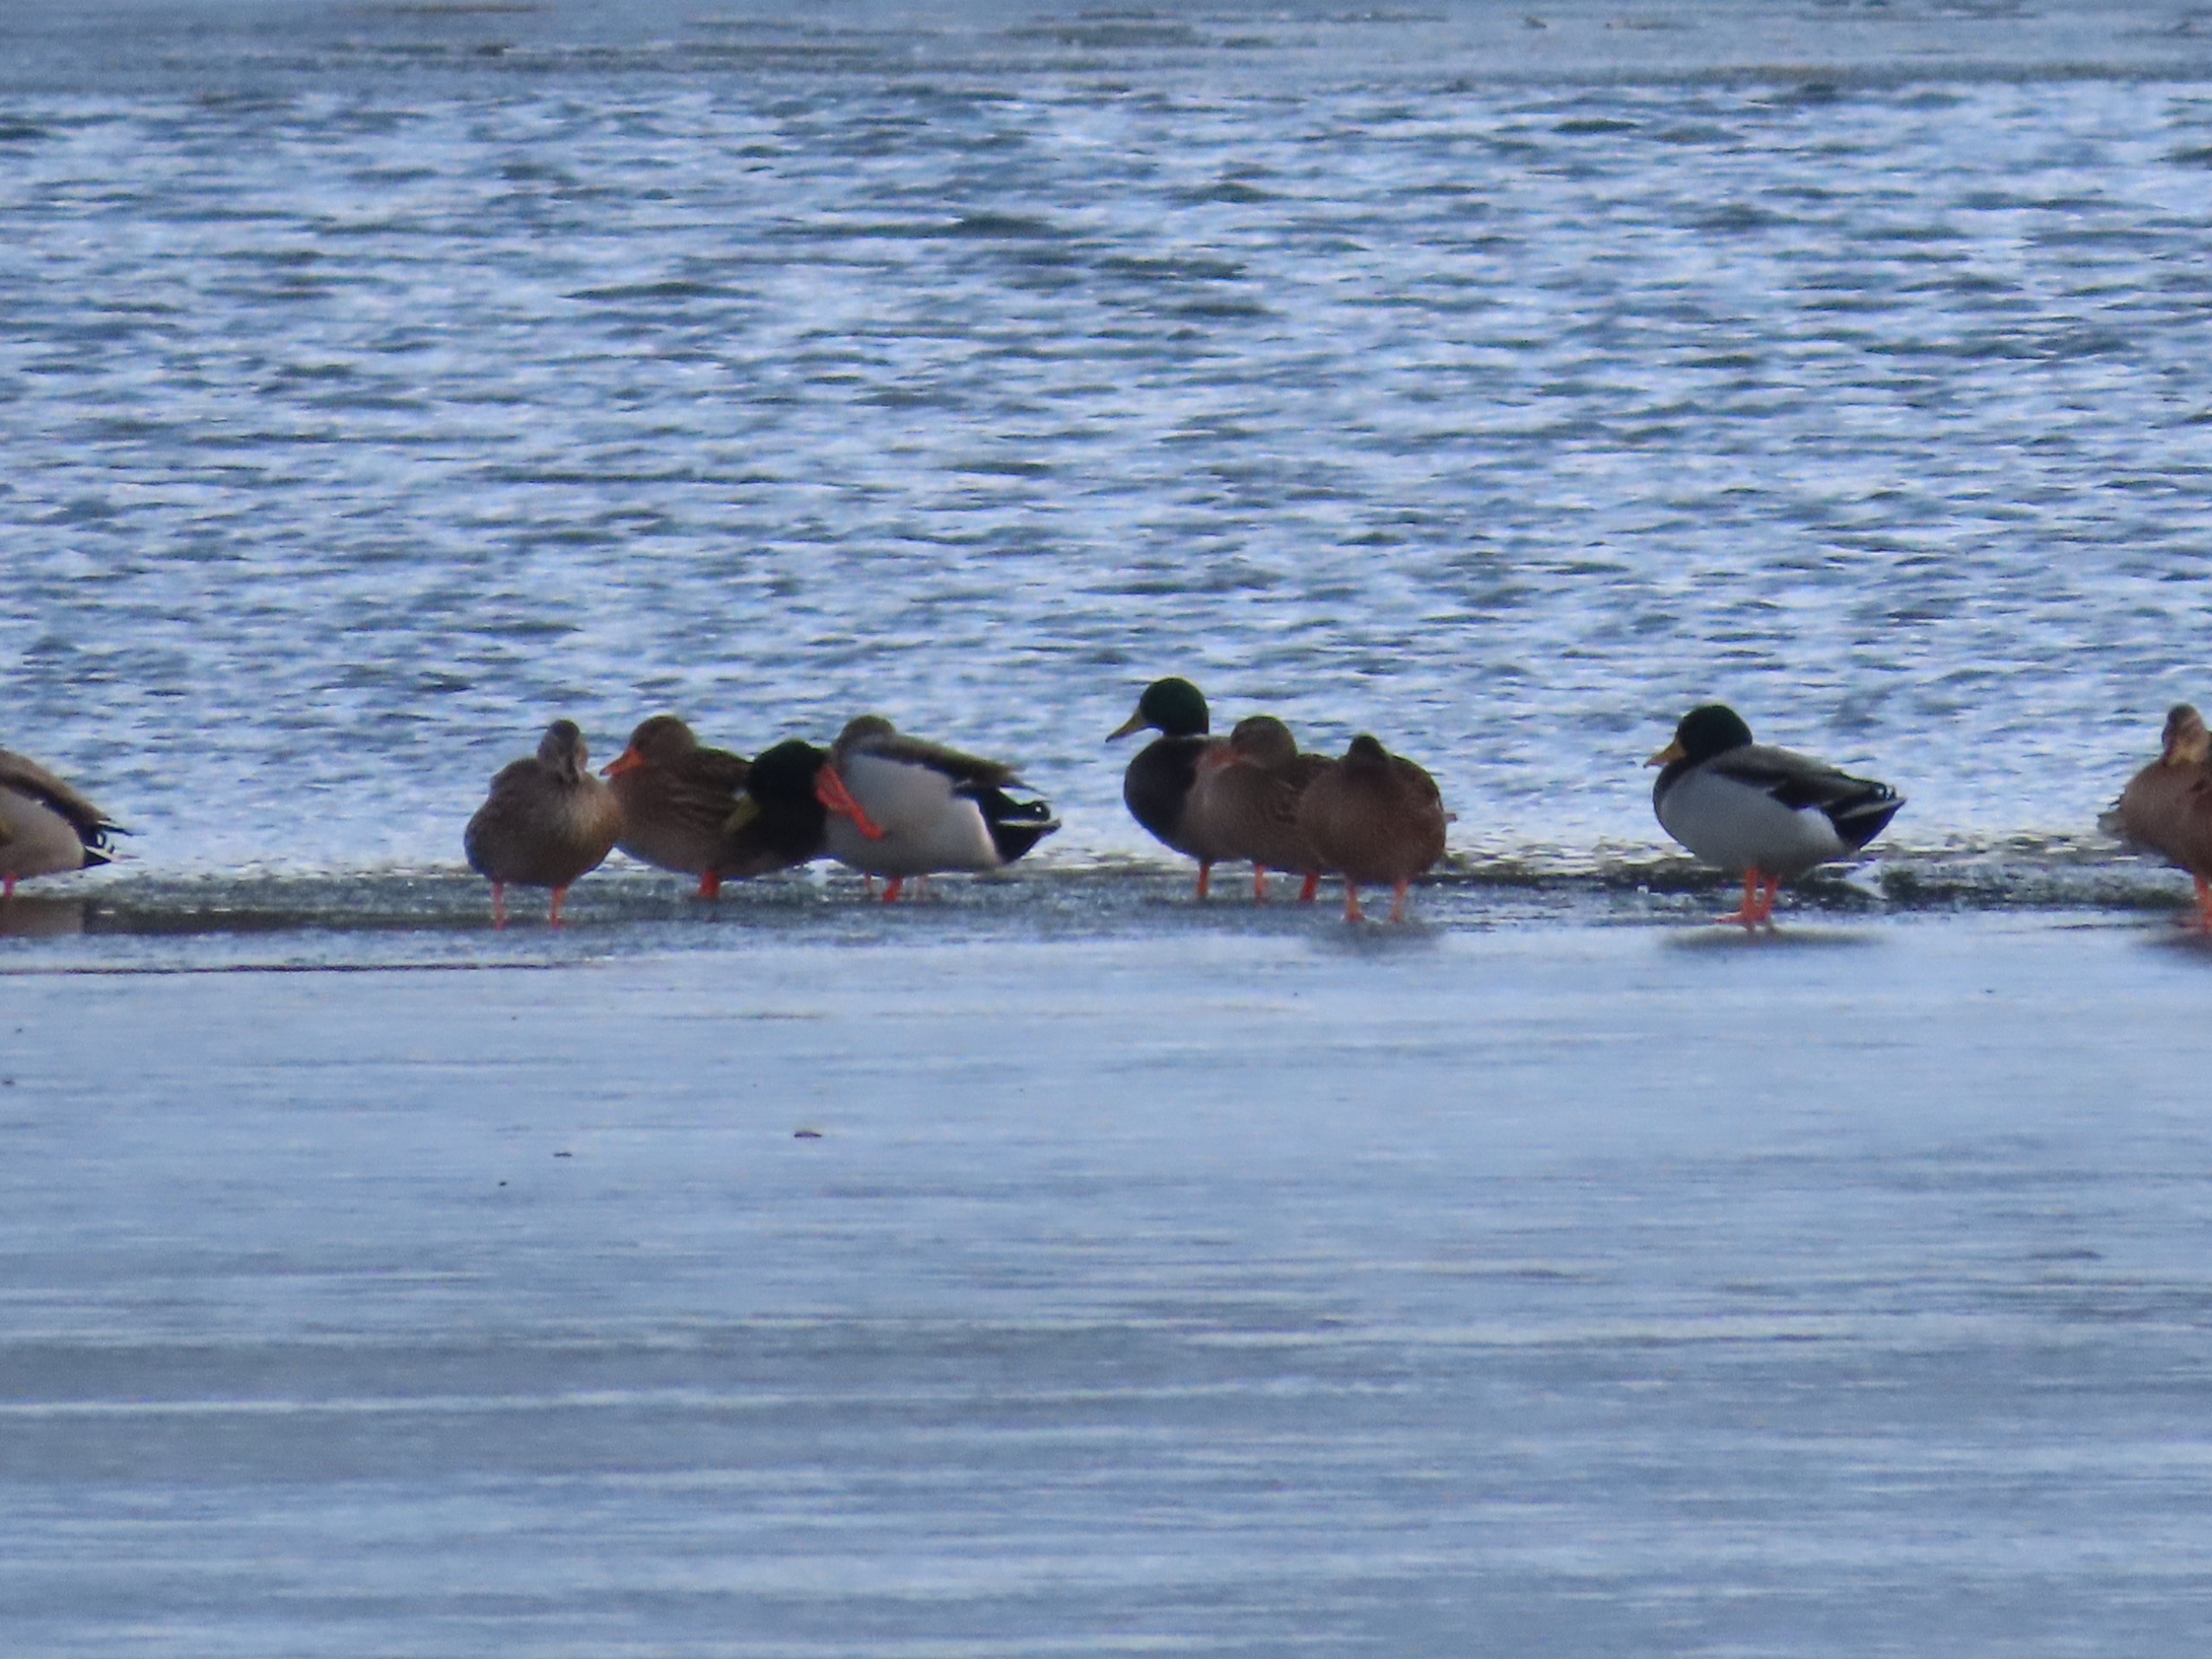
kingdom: Animalia
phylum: Chordata
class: Aves
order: Anseriformes
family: Anatidae
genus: Anas
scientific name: Anas platyrhynchos
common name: Gråand
